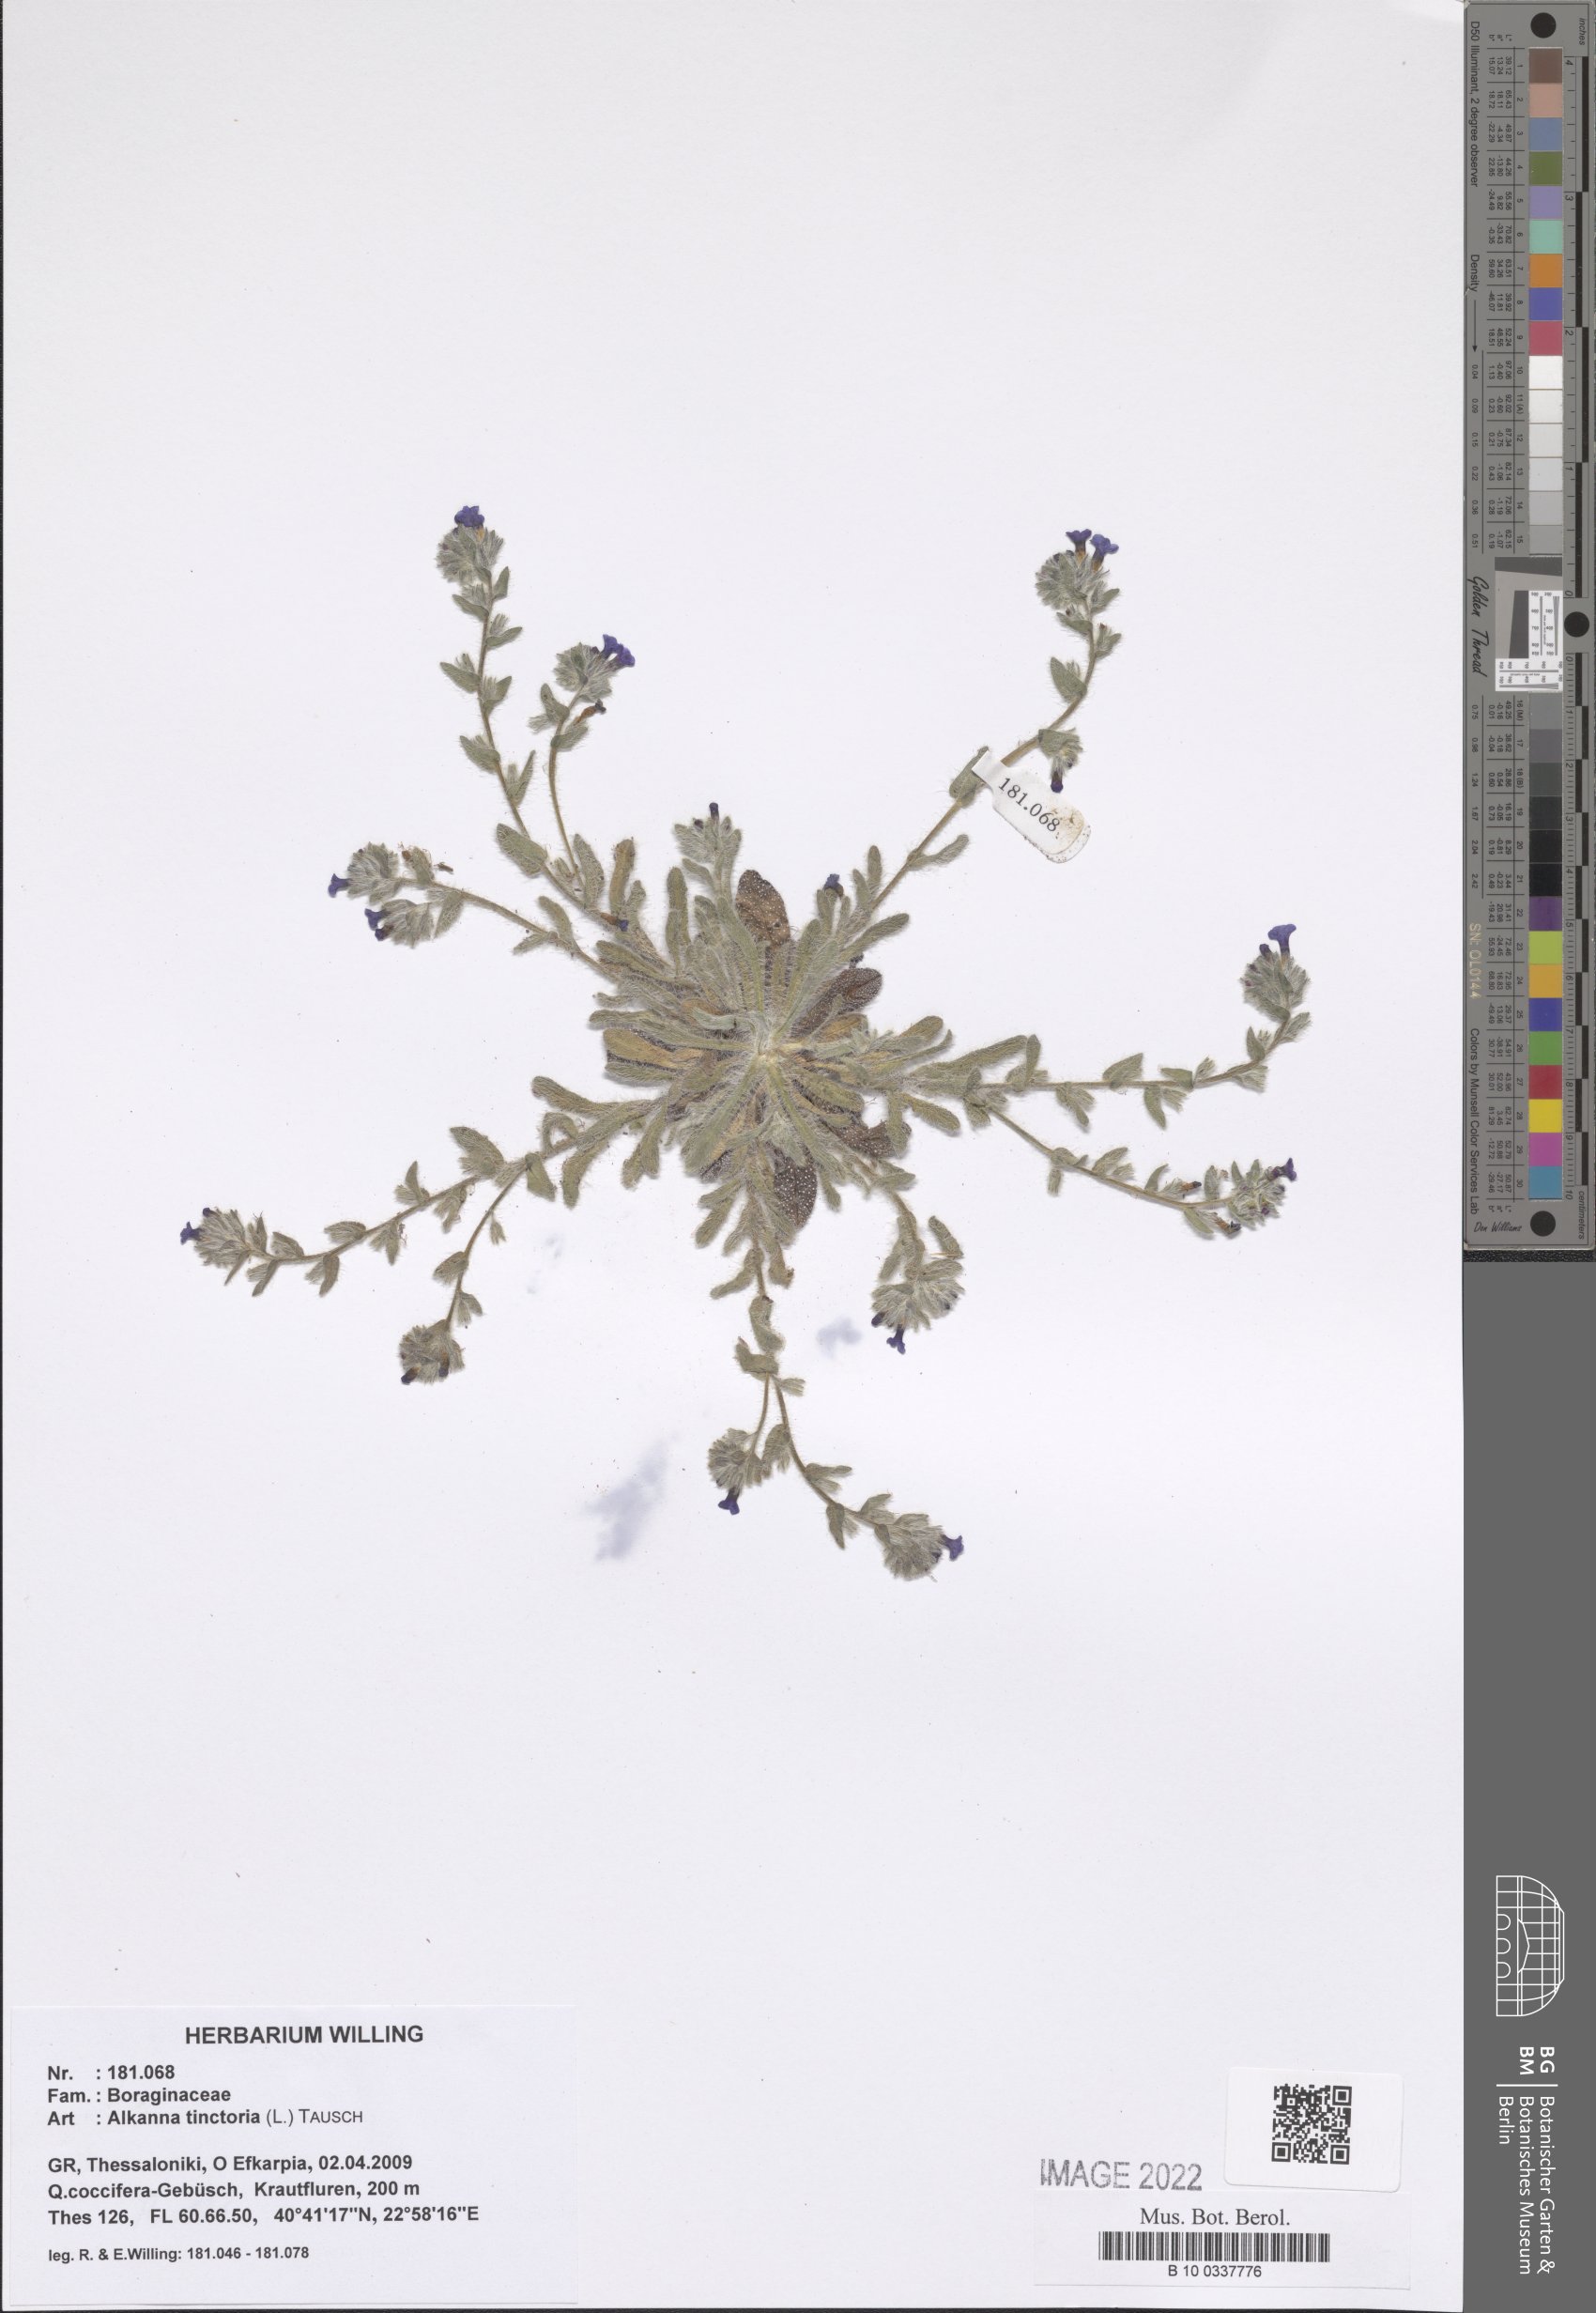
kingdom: Plantae
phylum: Tracheophyta
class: Magnoliopsida
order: Boraginales
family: Boraginaceae
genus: Alkanna
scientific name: Alkanna tinctoria
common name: Dyer's-alkanet
